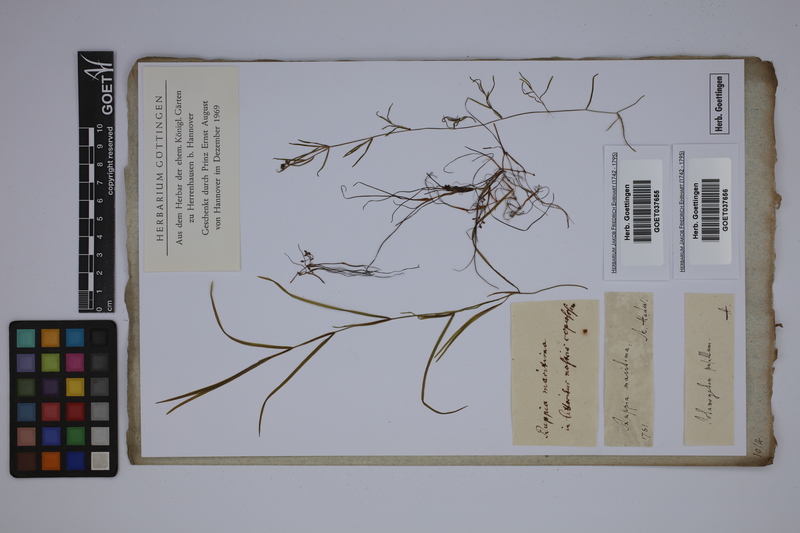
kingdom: Plantae
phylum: Tracheophyta
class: Liliopsida
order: Alismatales
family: Ruppiaceae
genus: Ruppia
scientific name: Ruppia maritima
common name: Beaked tasselweed
